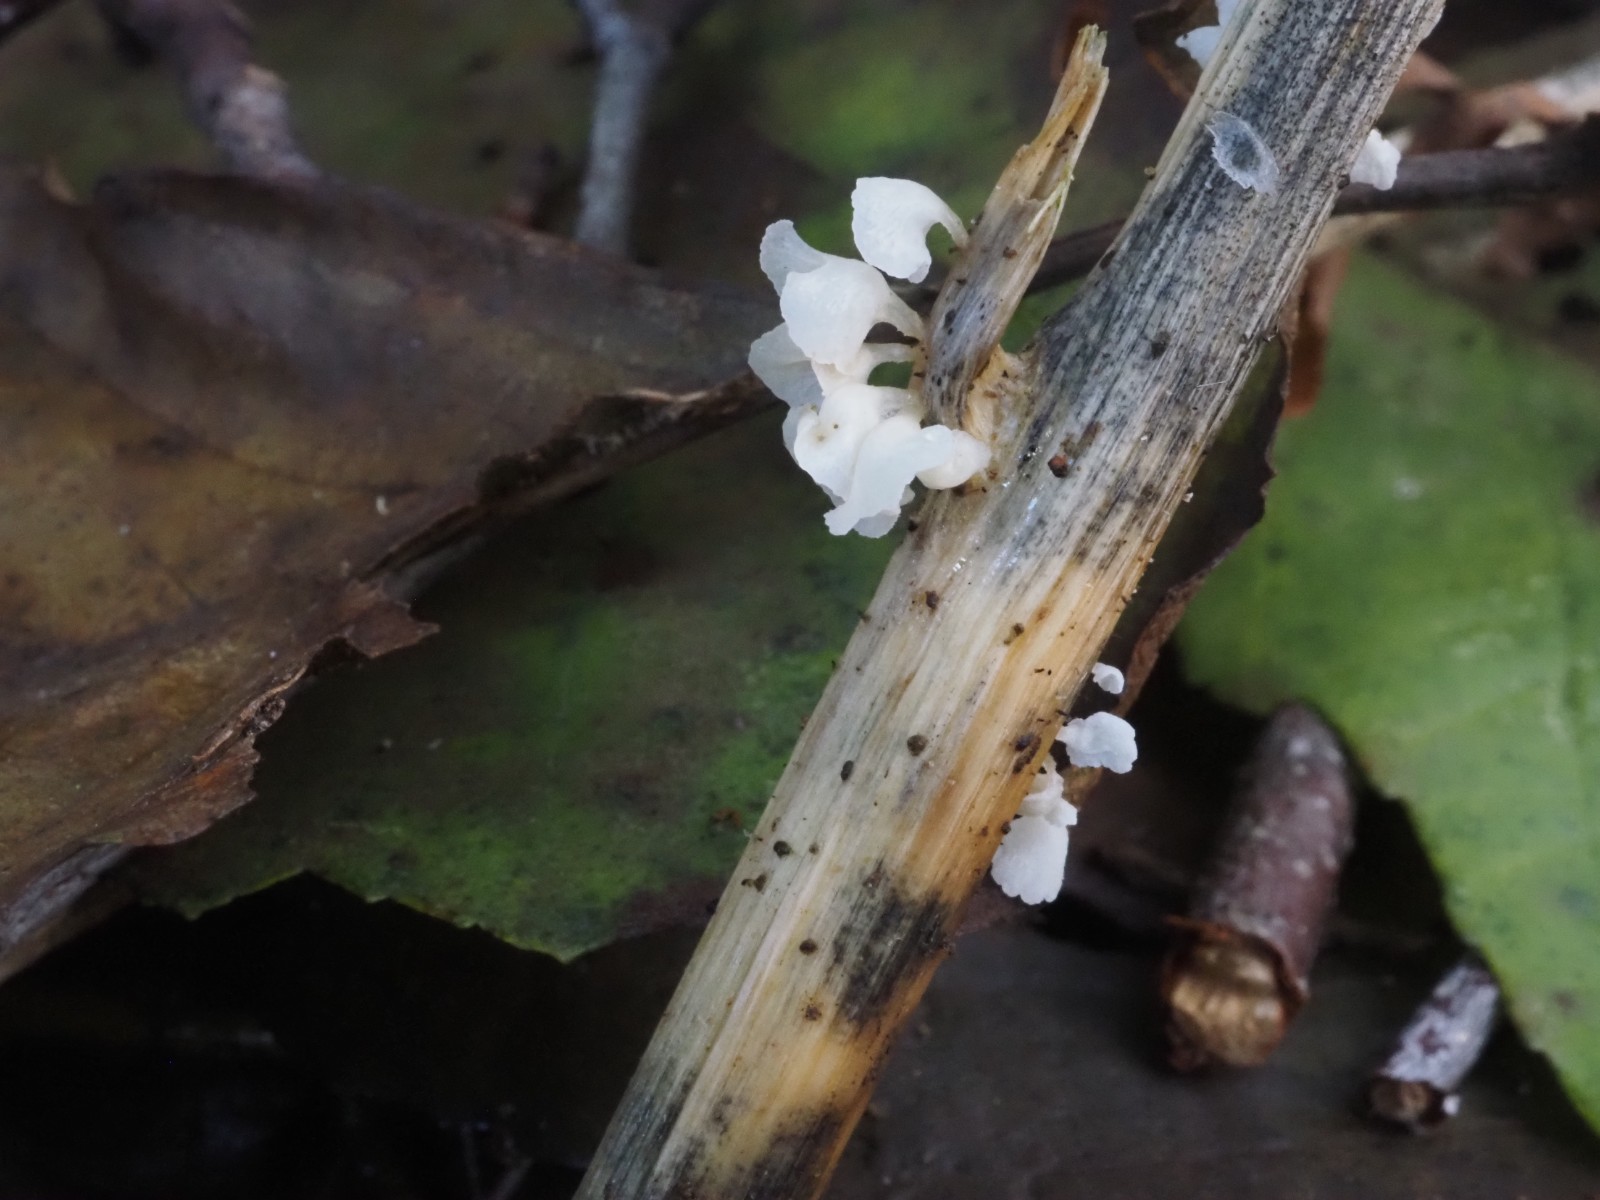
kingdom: Fungi
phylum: Basidiomycota
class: Agaricomycetes
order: Agaricales
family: Marasmiaceae
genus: Calyptella
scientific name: Calyptella capula
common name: hvidlig nældehue
